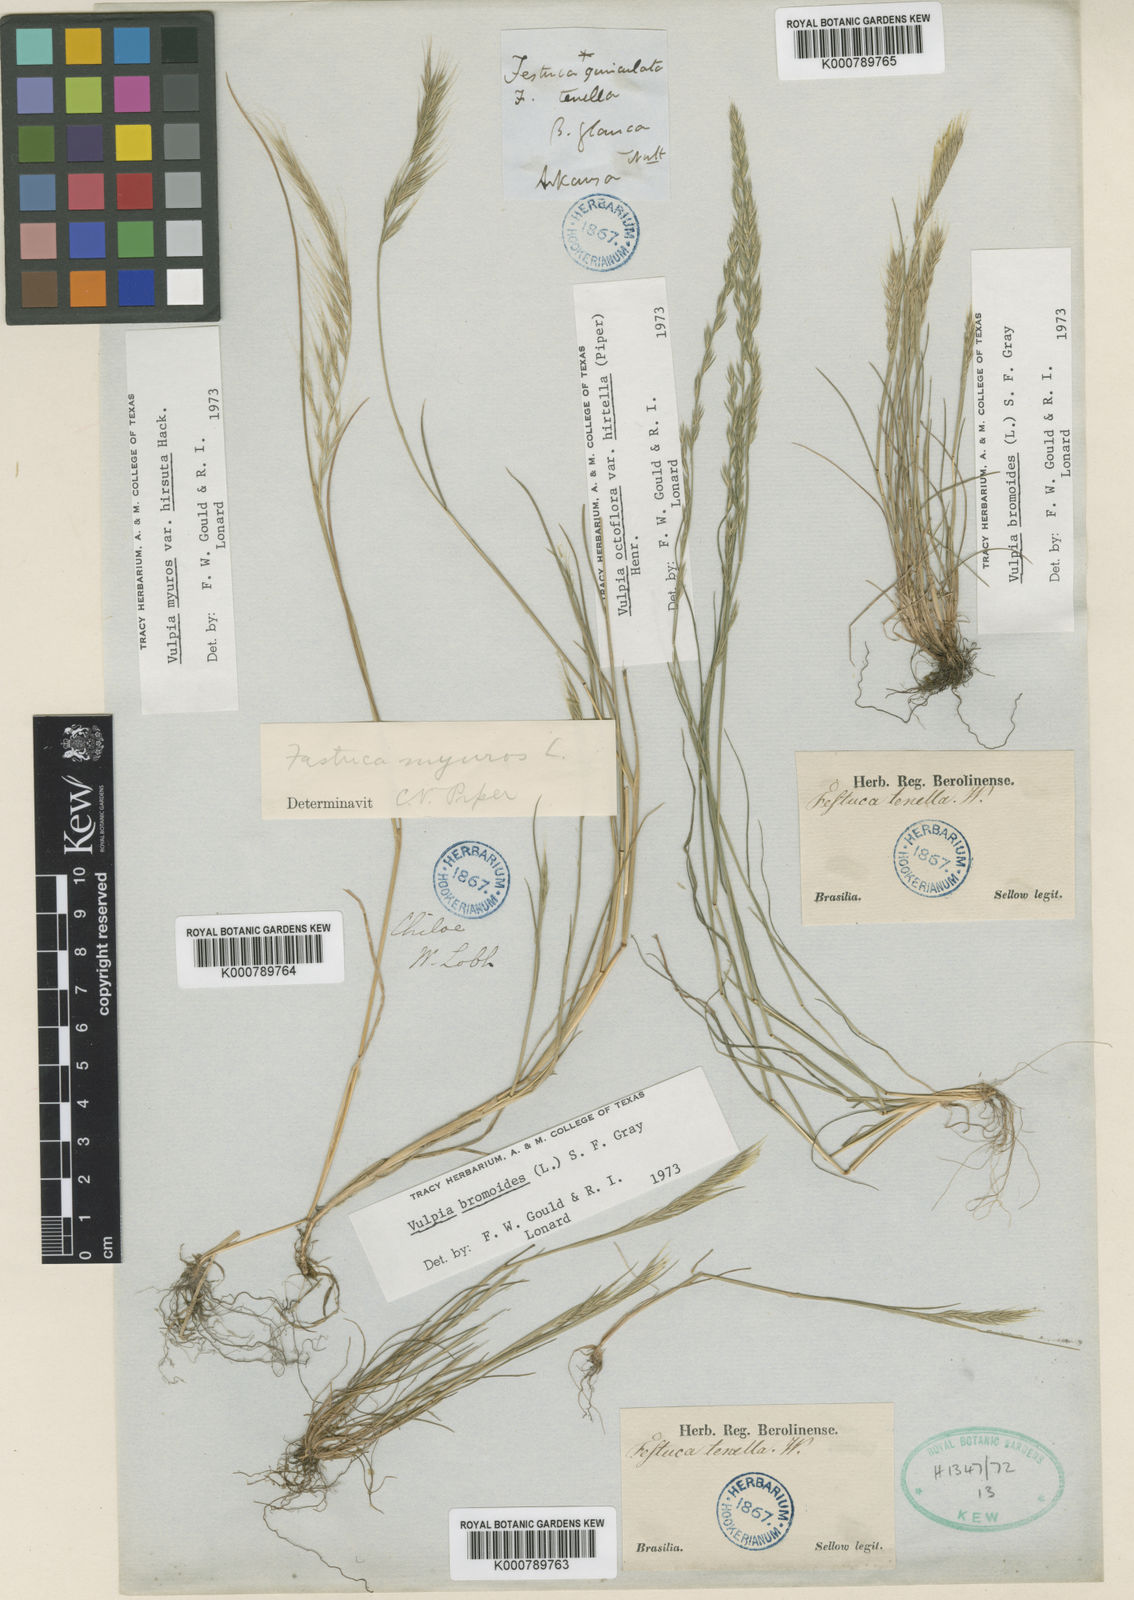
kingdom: Plantae
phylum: Tracheophyta
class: Liliopsida
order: Poales
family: Poaceae
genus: Festuca
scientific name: Festuca octoflora
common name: Sixweeks grass
